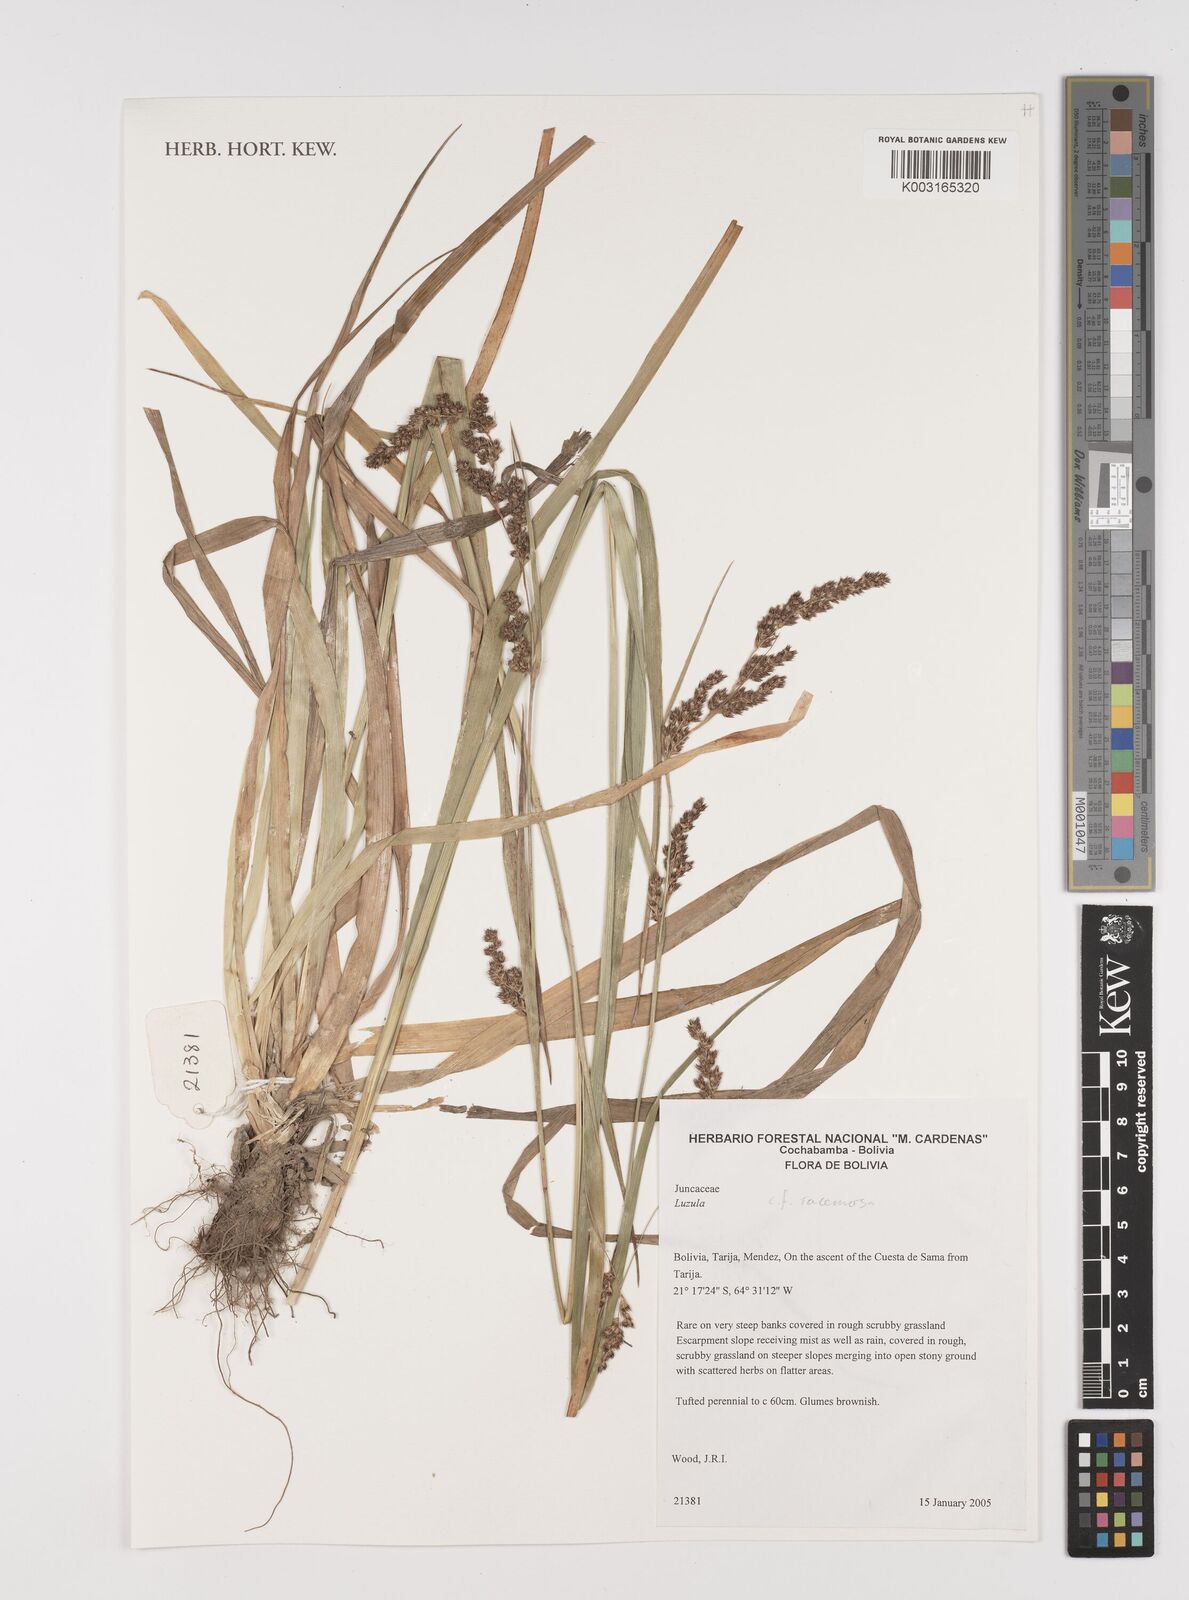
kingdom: Plantae
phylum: Tracheophyta
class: Liliopsida
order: Poales
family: Juncaceae
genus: Luzula
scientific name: Luzula racemosa
